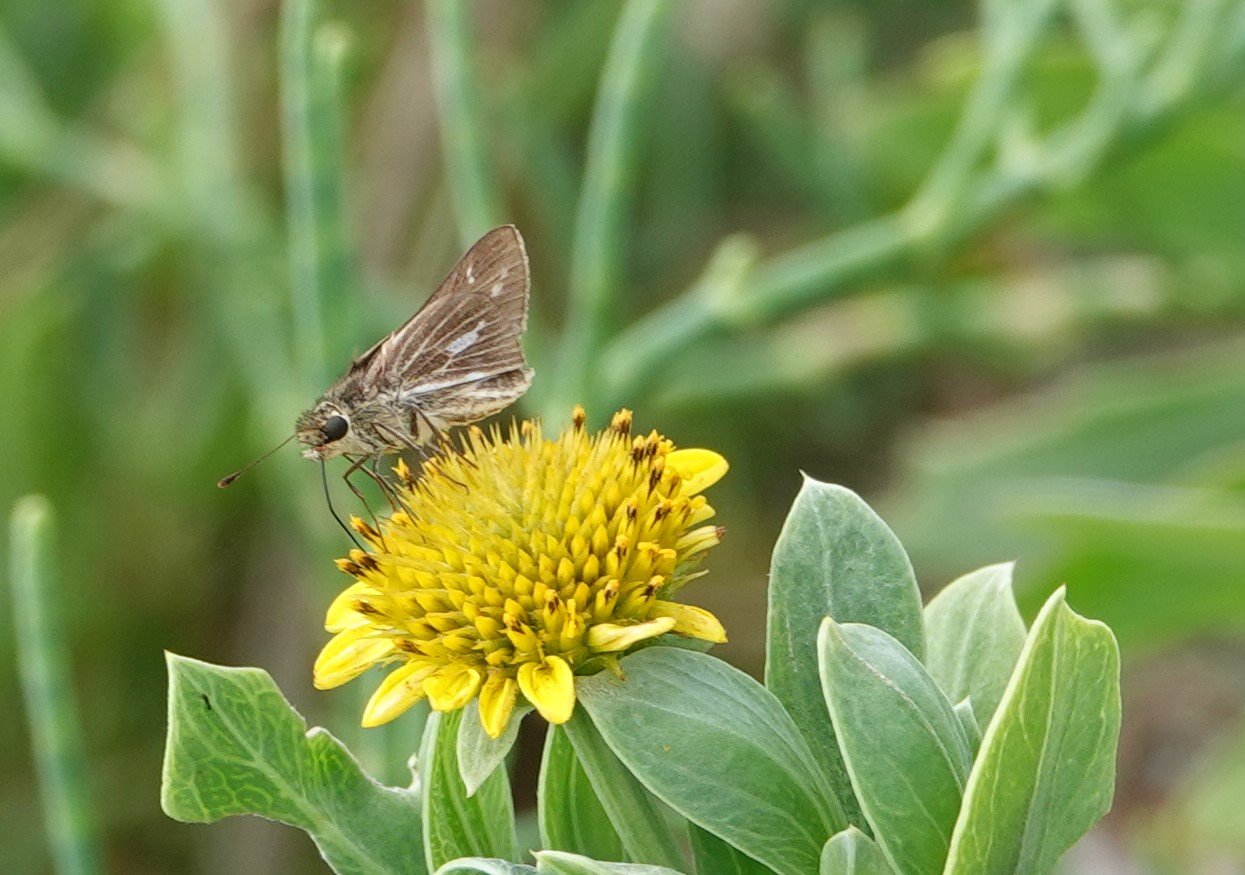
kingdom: Animalia
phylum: Arthropoda
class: Insecta
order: Lepidoptera
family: Hesperiidae
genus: Panoquina
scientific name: Panoquina panoquin
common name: Salt Marsh Skipper
